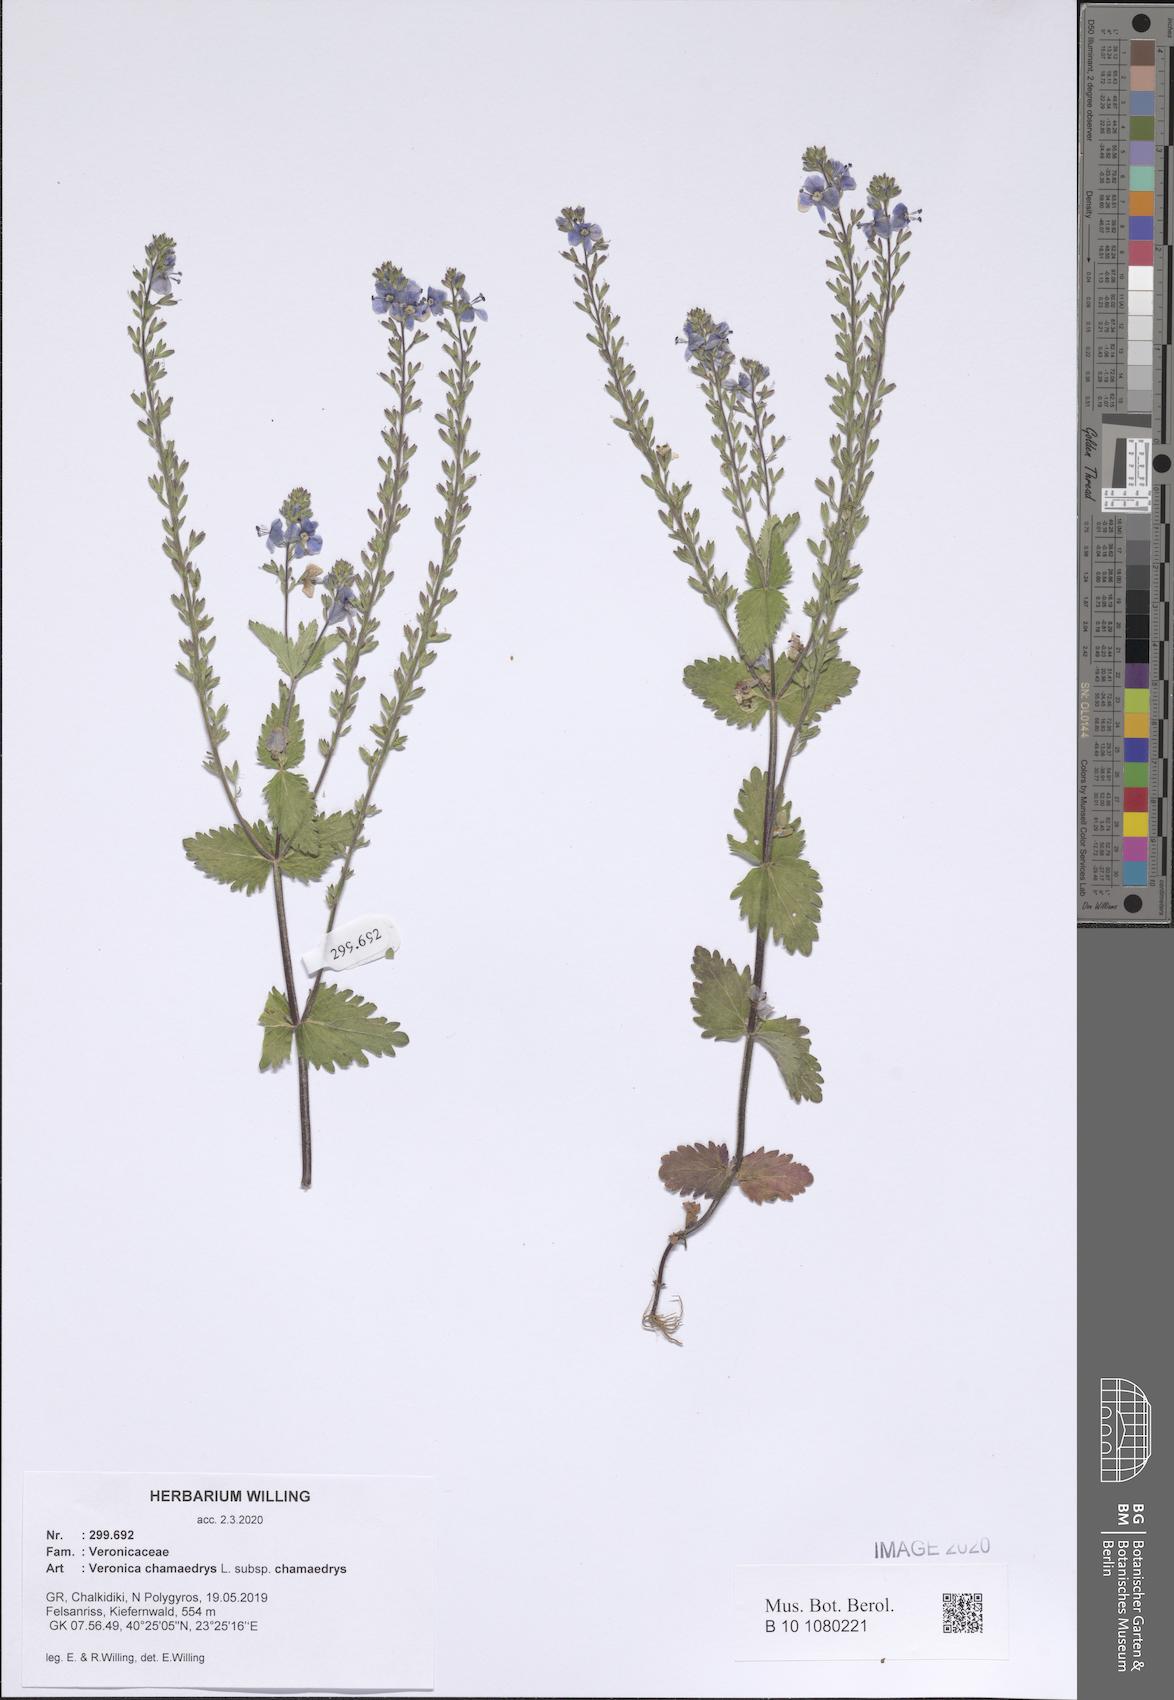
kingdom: Plantae
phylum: Tracheophyta
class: Magnoliopsida
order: Lamiales
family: Plantaginaceae
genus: Veronica
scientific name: Veronica chamaedrys
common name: Germander speedwell
